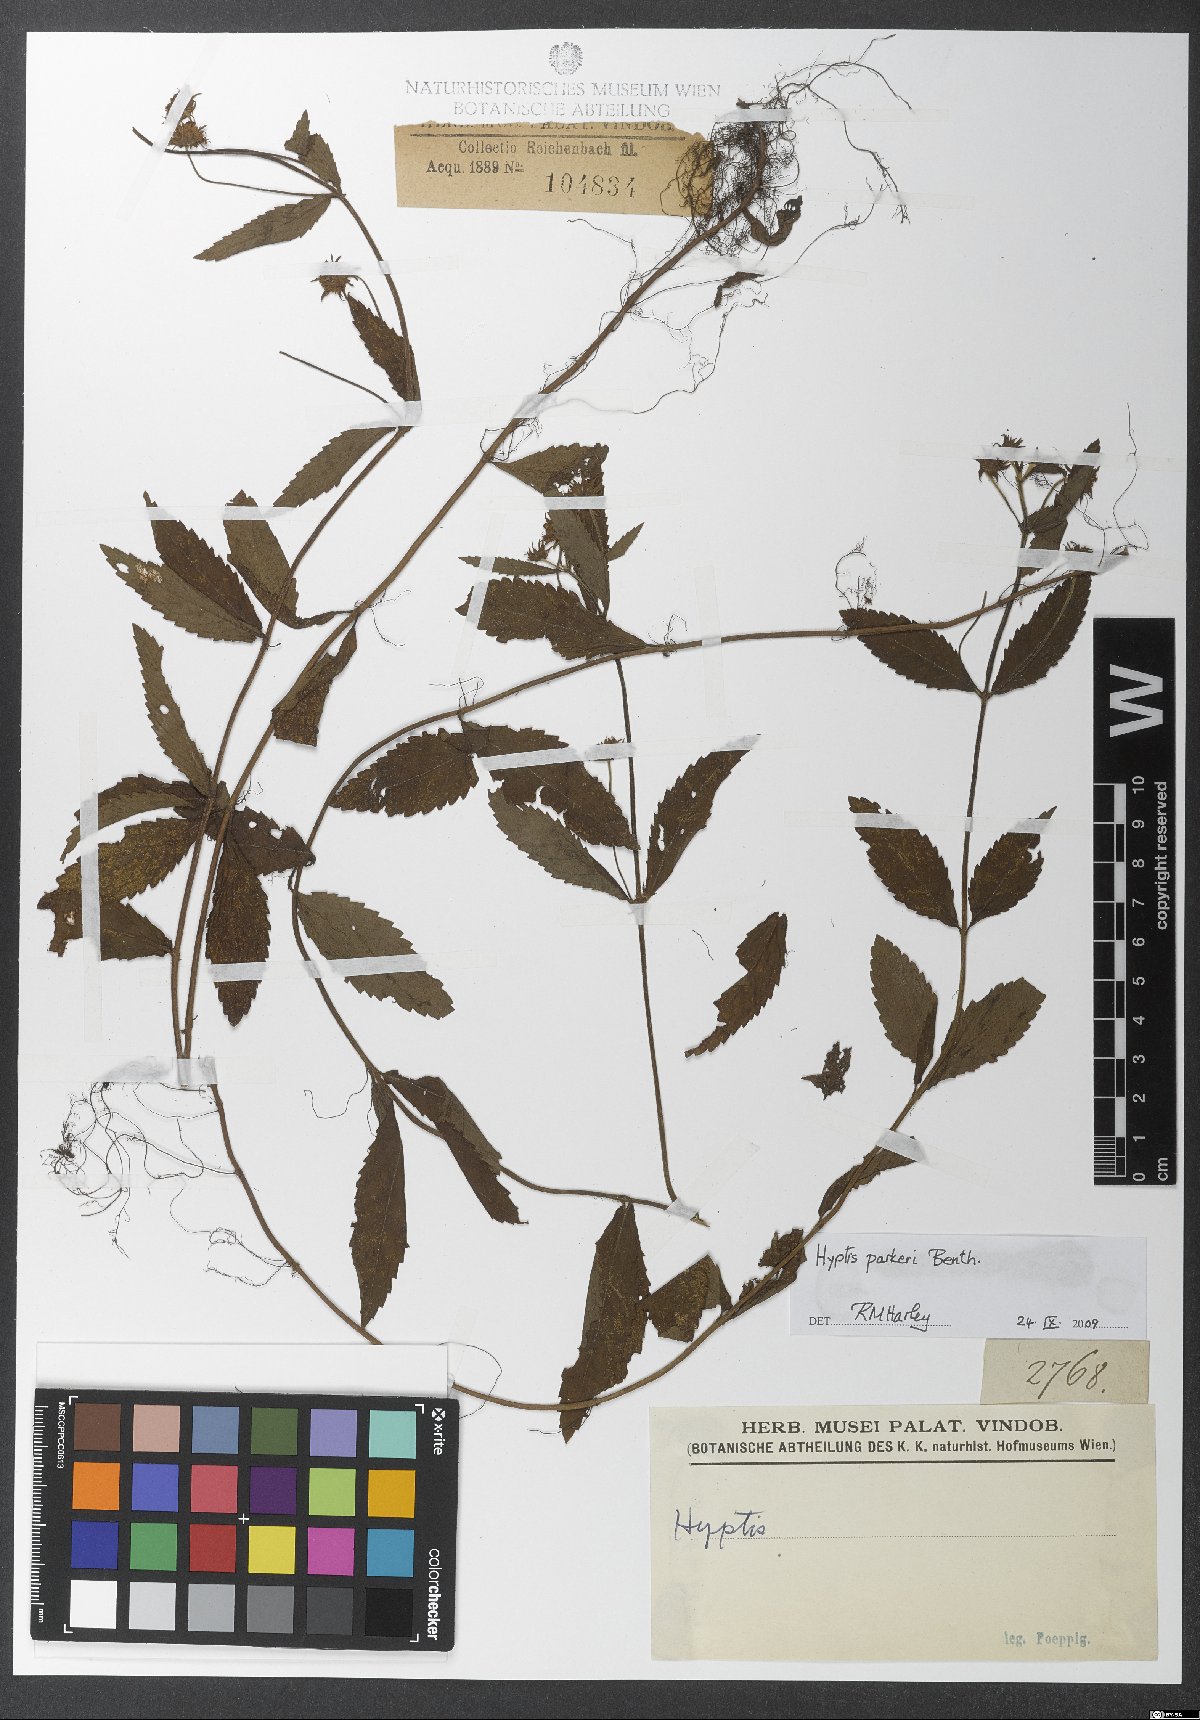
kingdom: Plantae
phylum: Tracheophyta
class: Magnoliopsida
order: Lamiales
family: Lamiaceae
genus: Hyptis
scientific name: Hyptis parkeri
